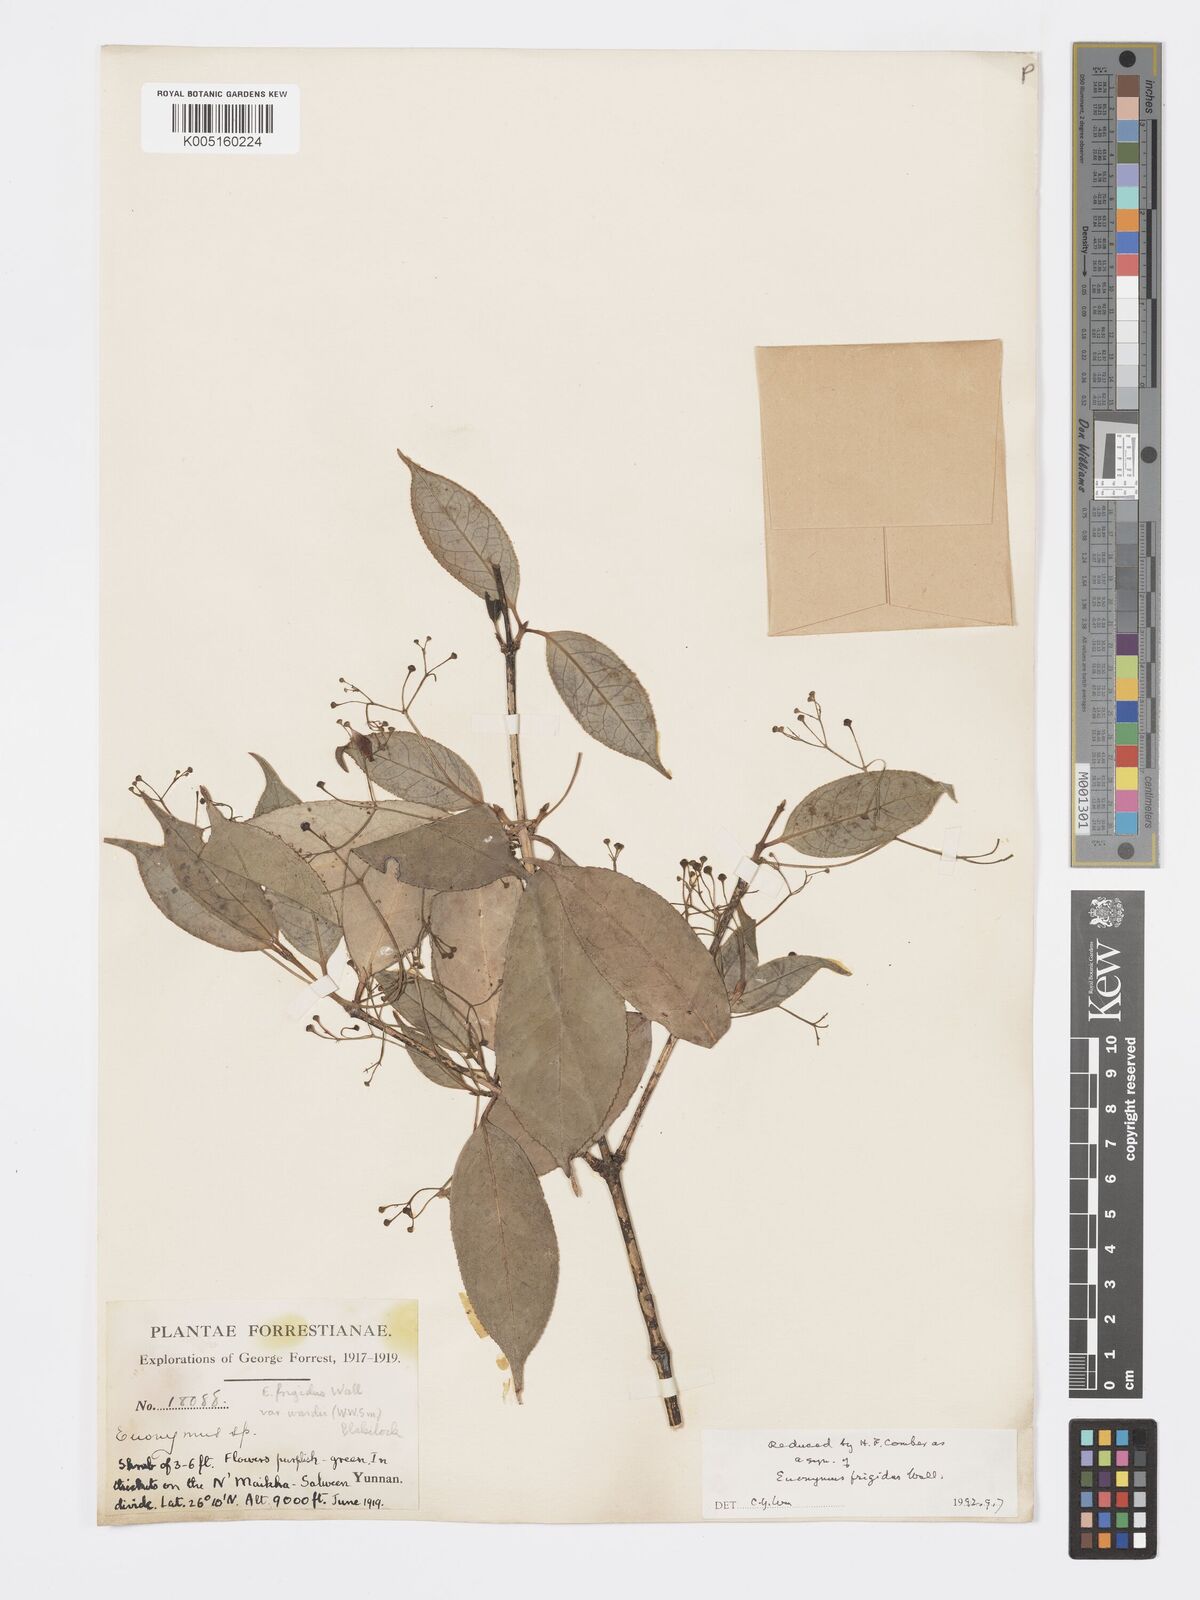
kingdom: Plantae
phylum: Tracheophyta
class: Magnoliopsida
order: Celastrales
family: Celastraceae
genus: Euonymus
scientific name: Euonymus frigidus
